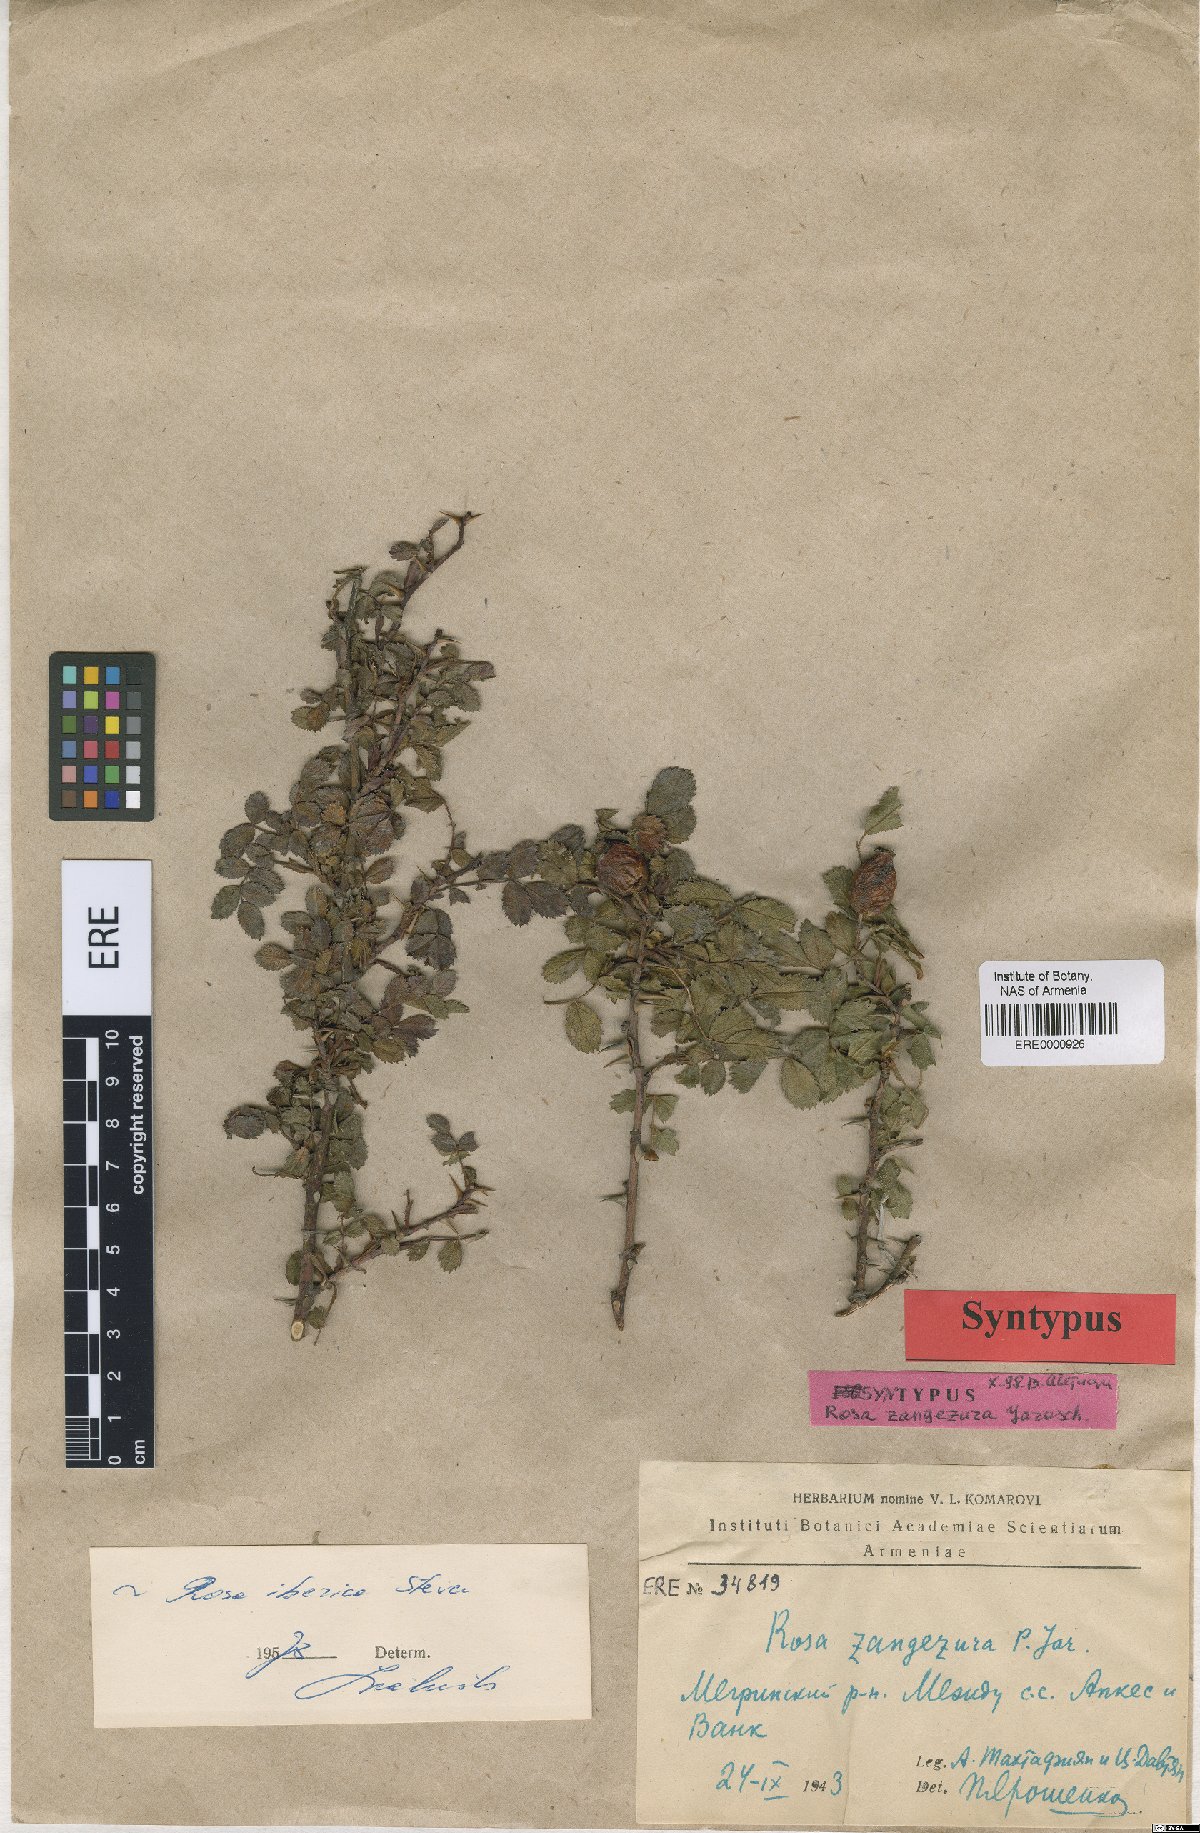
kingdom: Plantae
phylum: Tracheophyta
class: Magnoliopsida
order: Rosales
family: Rosaceae
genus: Rosa
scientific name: Rosa zangezura
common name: Zangezurian rose
